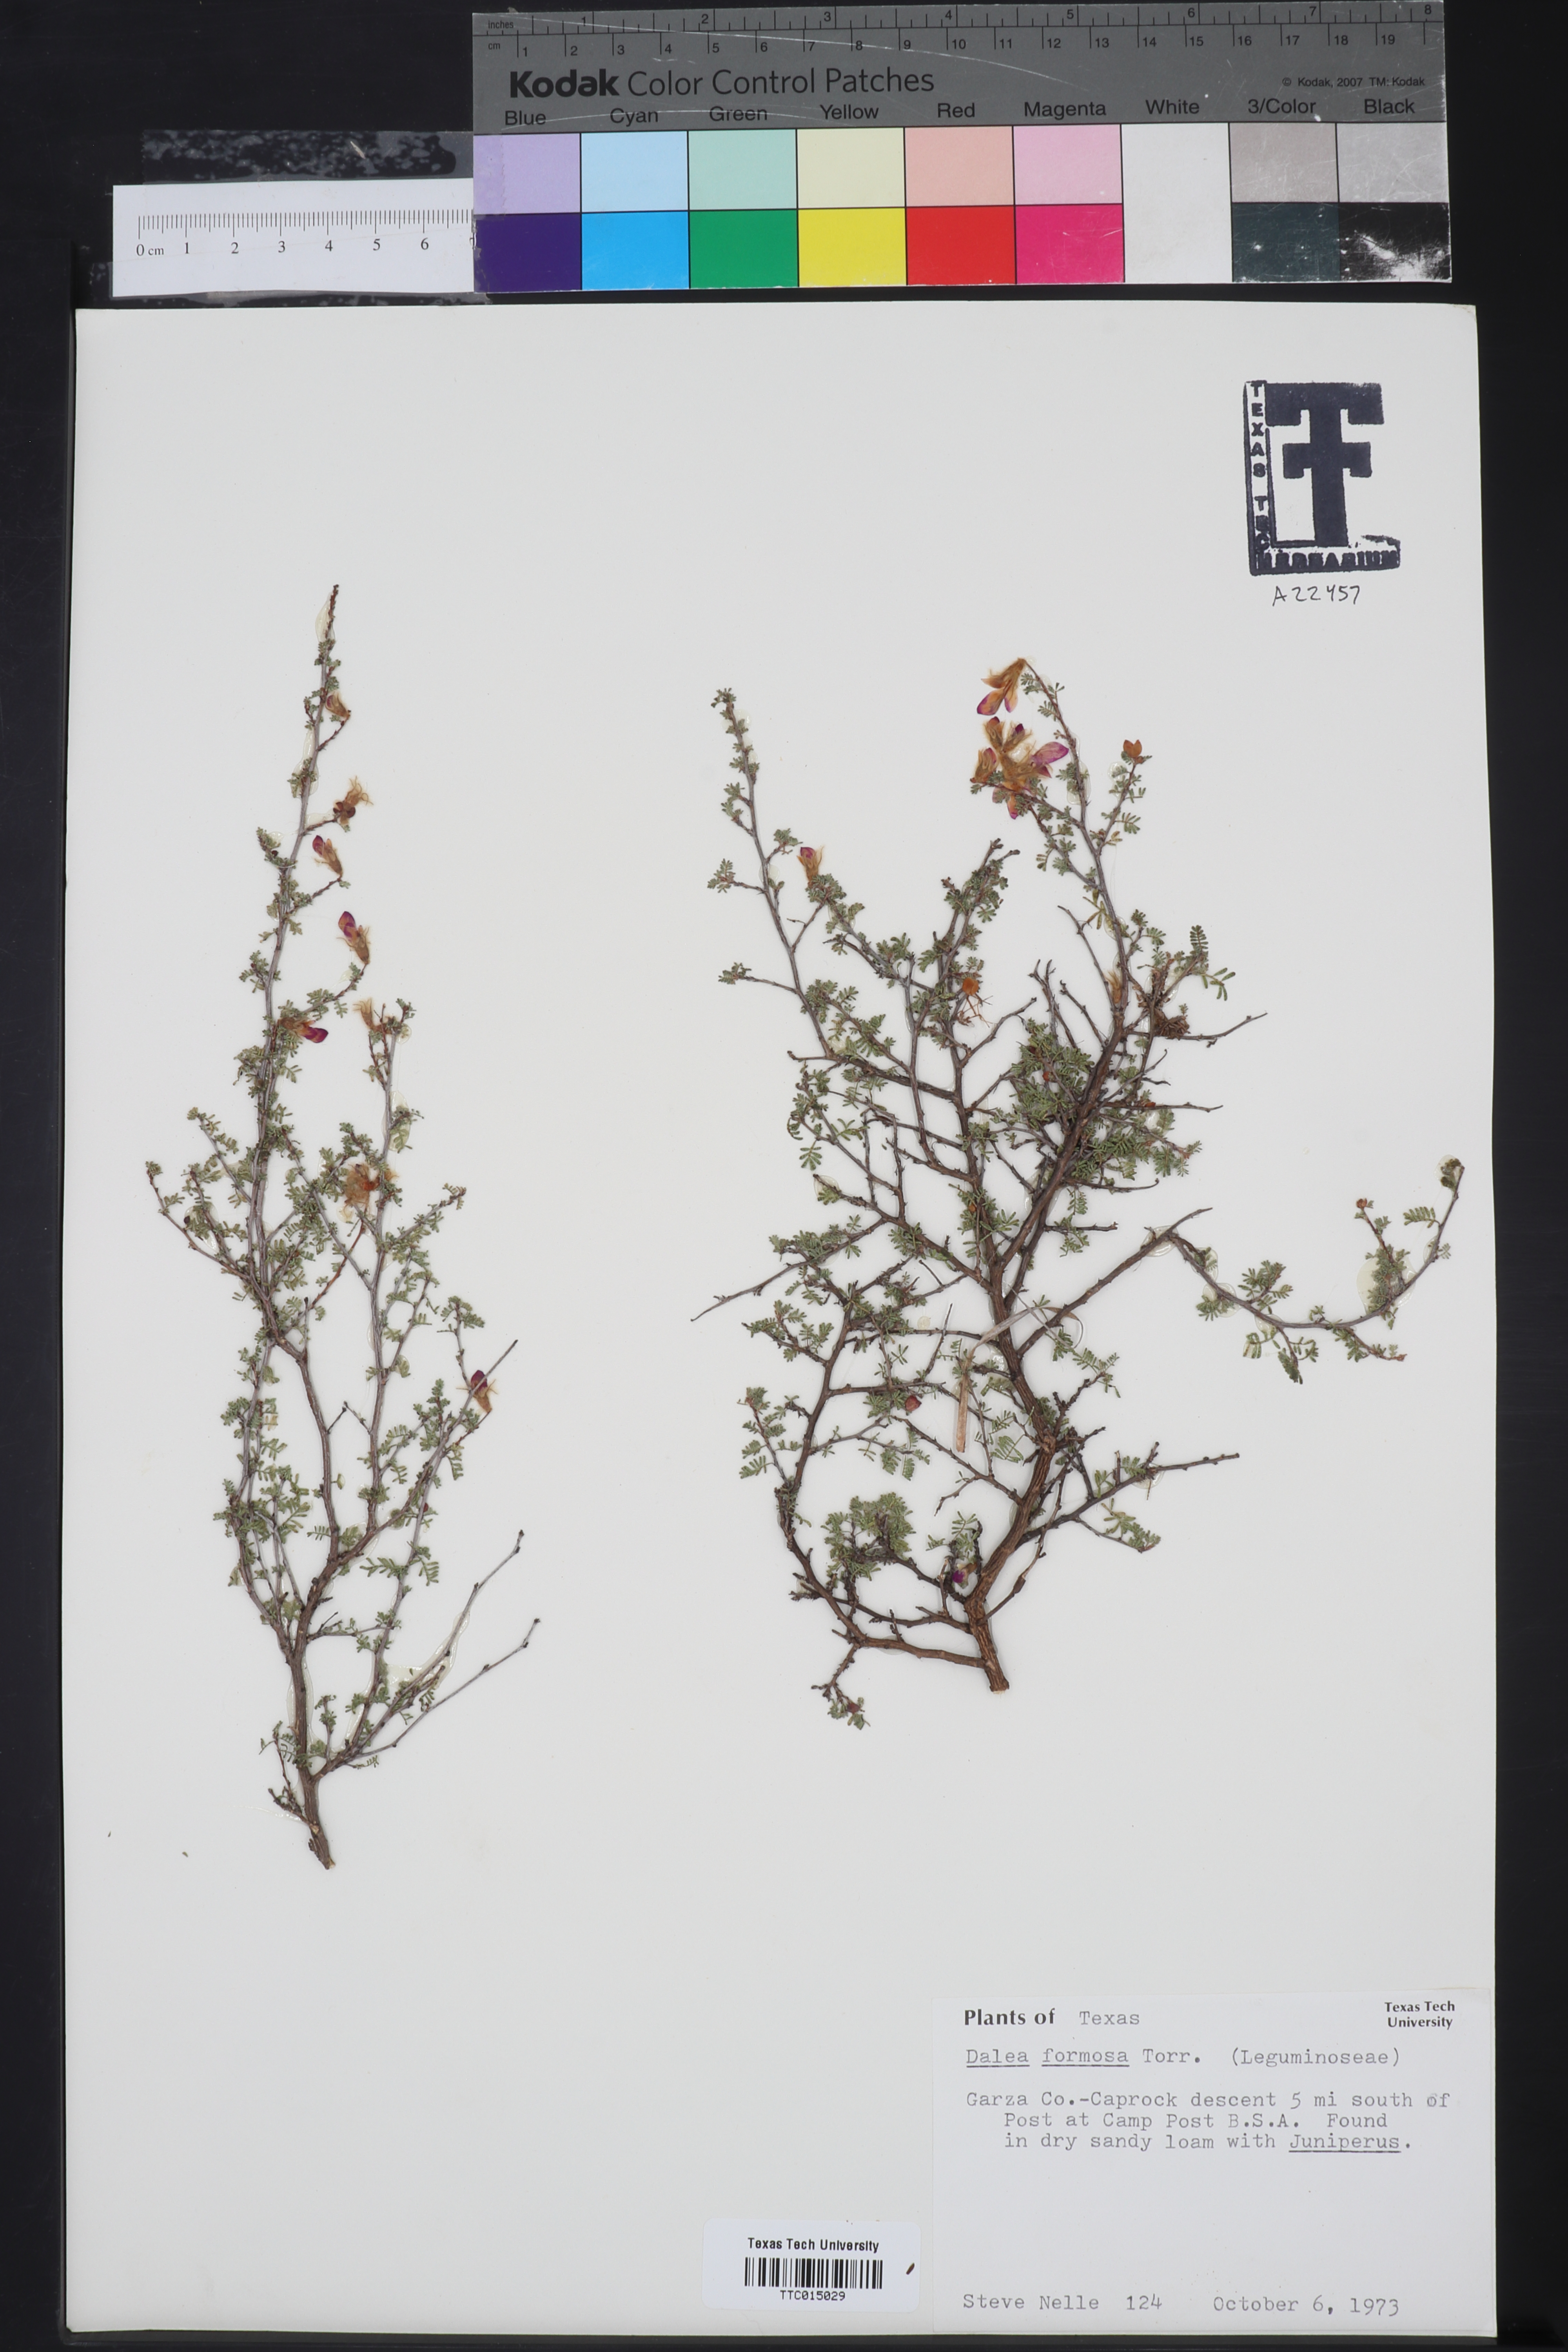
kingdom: Plantae
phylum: Tracheophyta
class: Magnoliopsida
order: Fabales
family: Fabaceae
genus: Dalea
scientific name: Dalea formosa
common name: Feather-plume dalea
